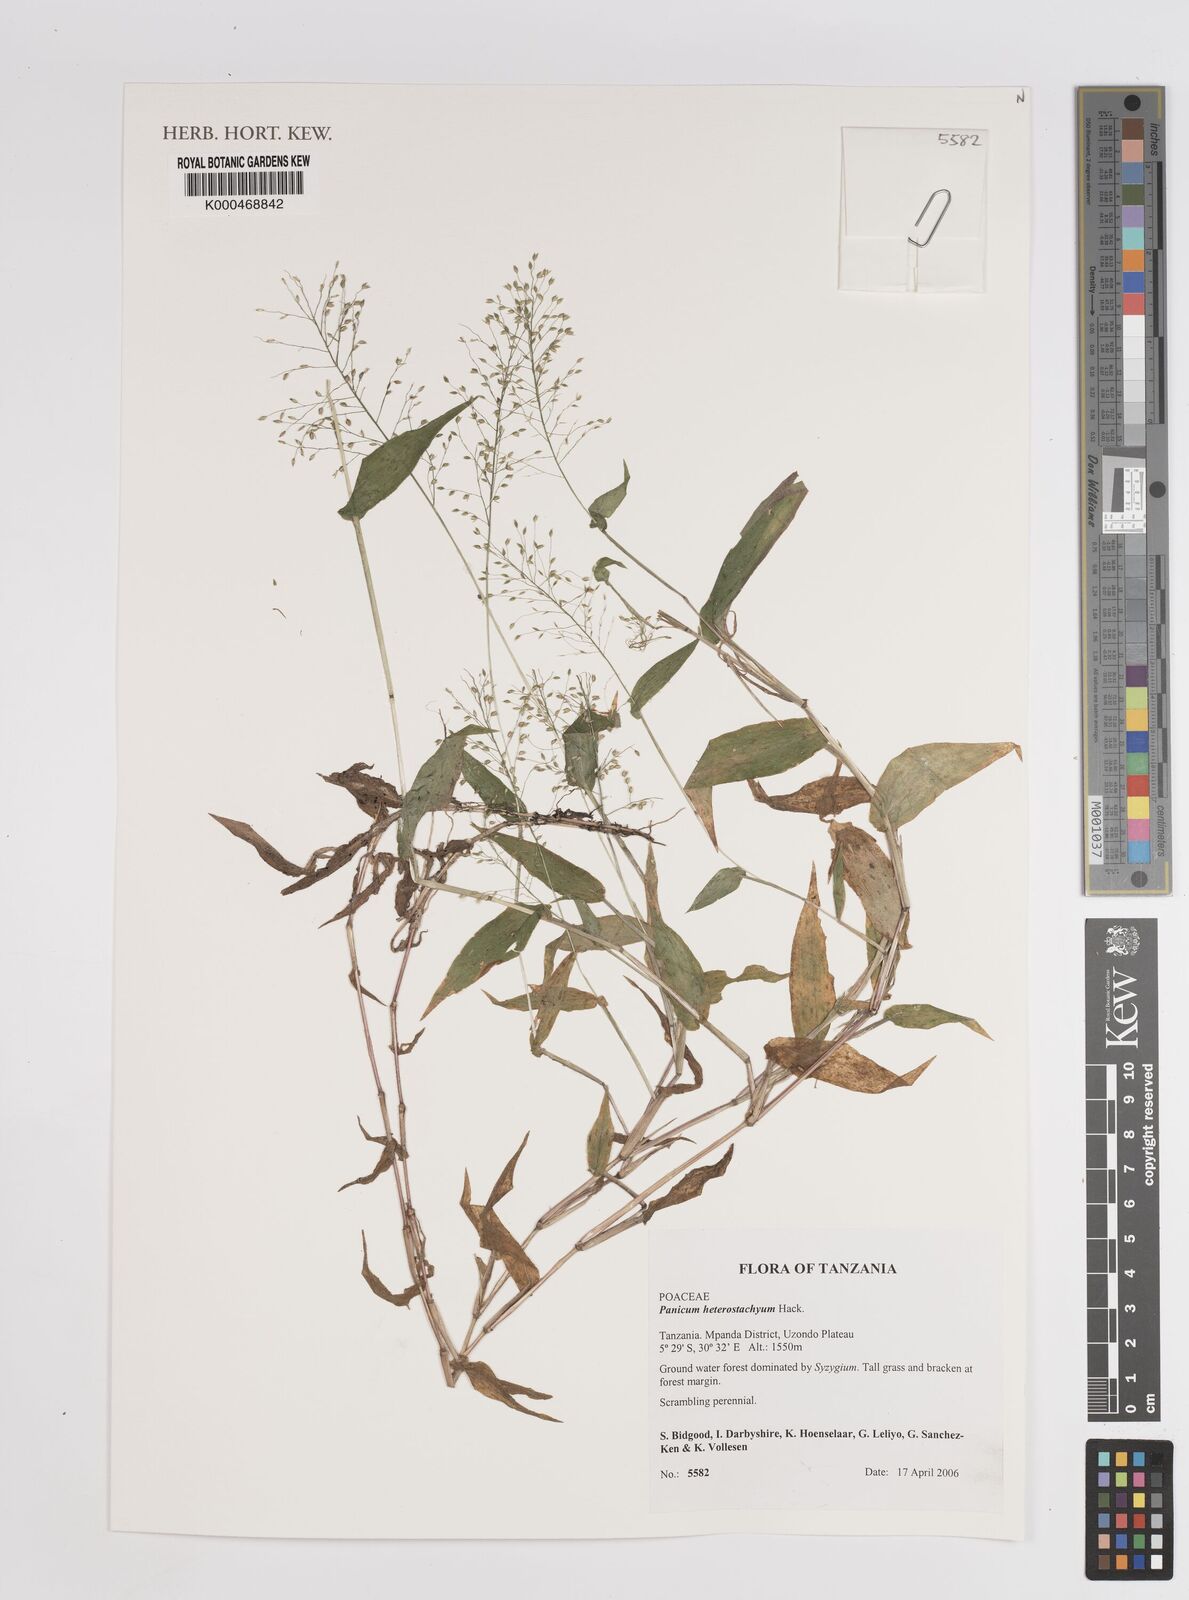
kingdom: Plantae
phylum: Tracheophyta
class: Liliopsida
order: Poales
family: Poaceae
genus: Panicum
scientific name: Panicum hirtum
